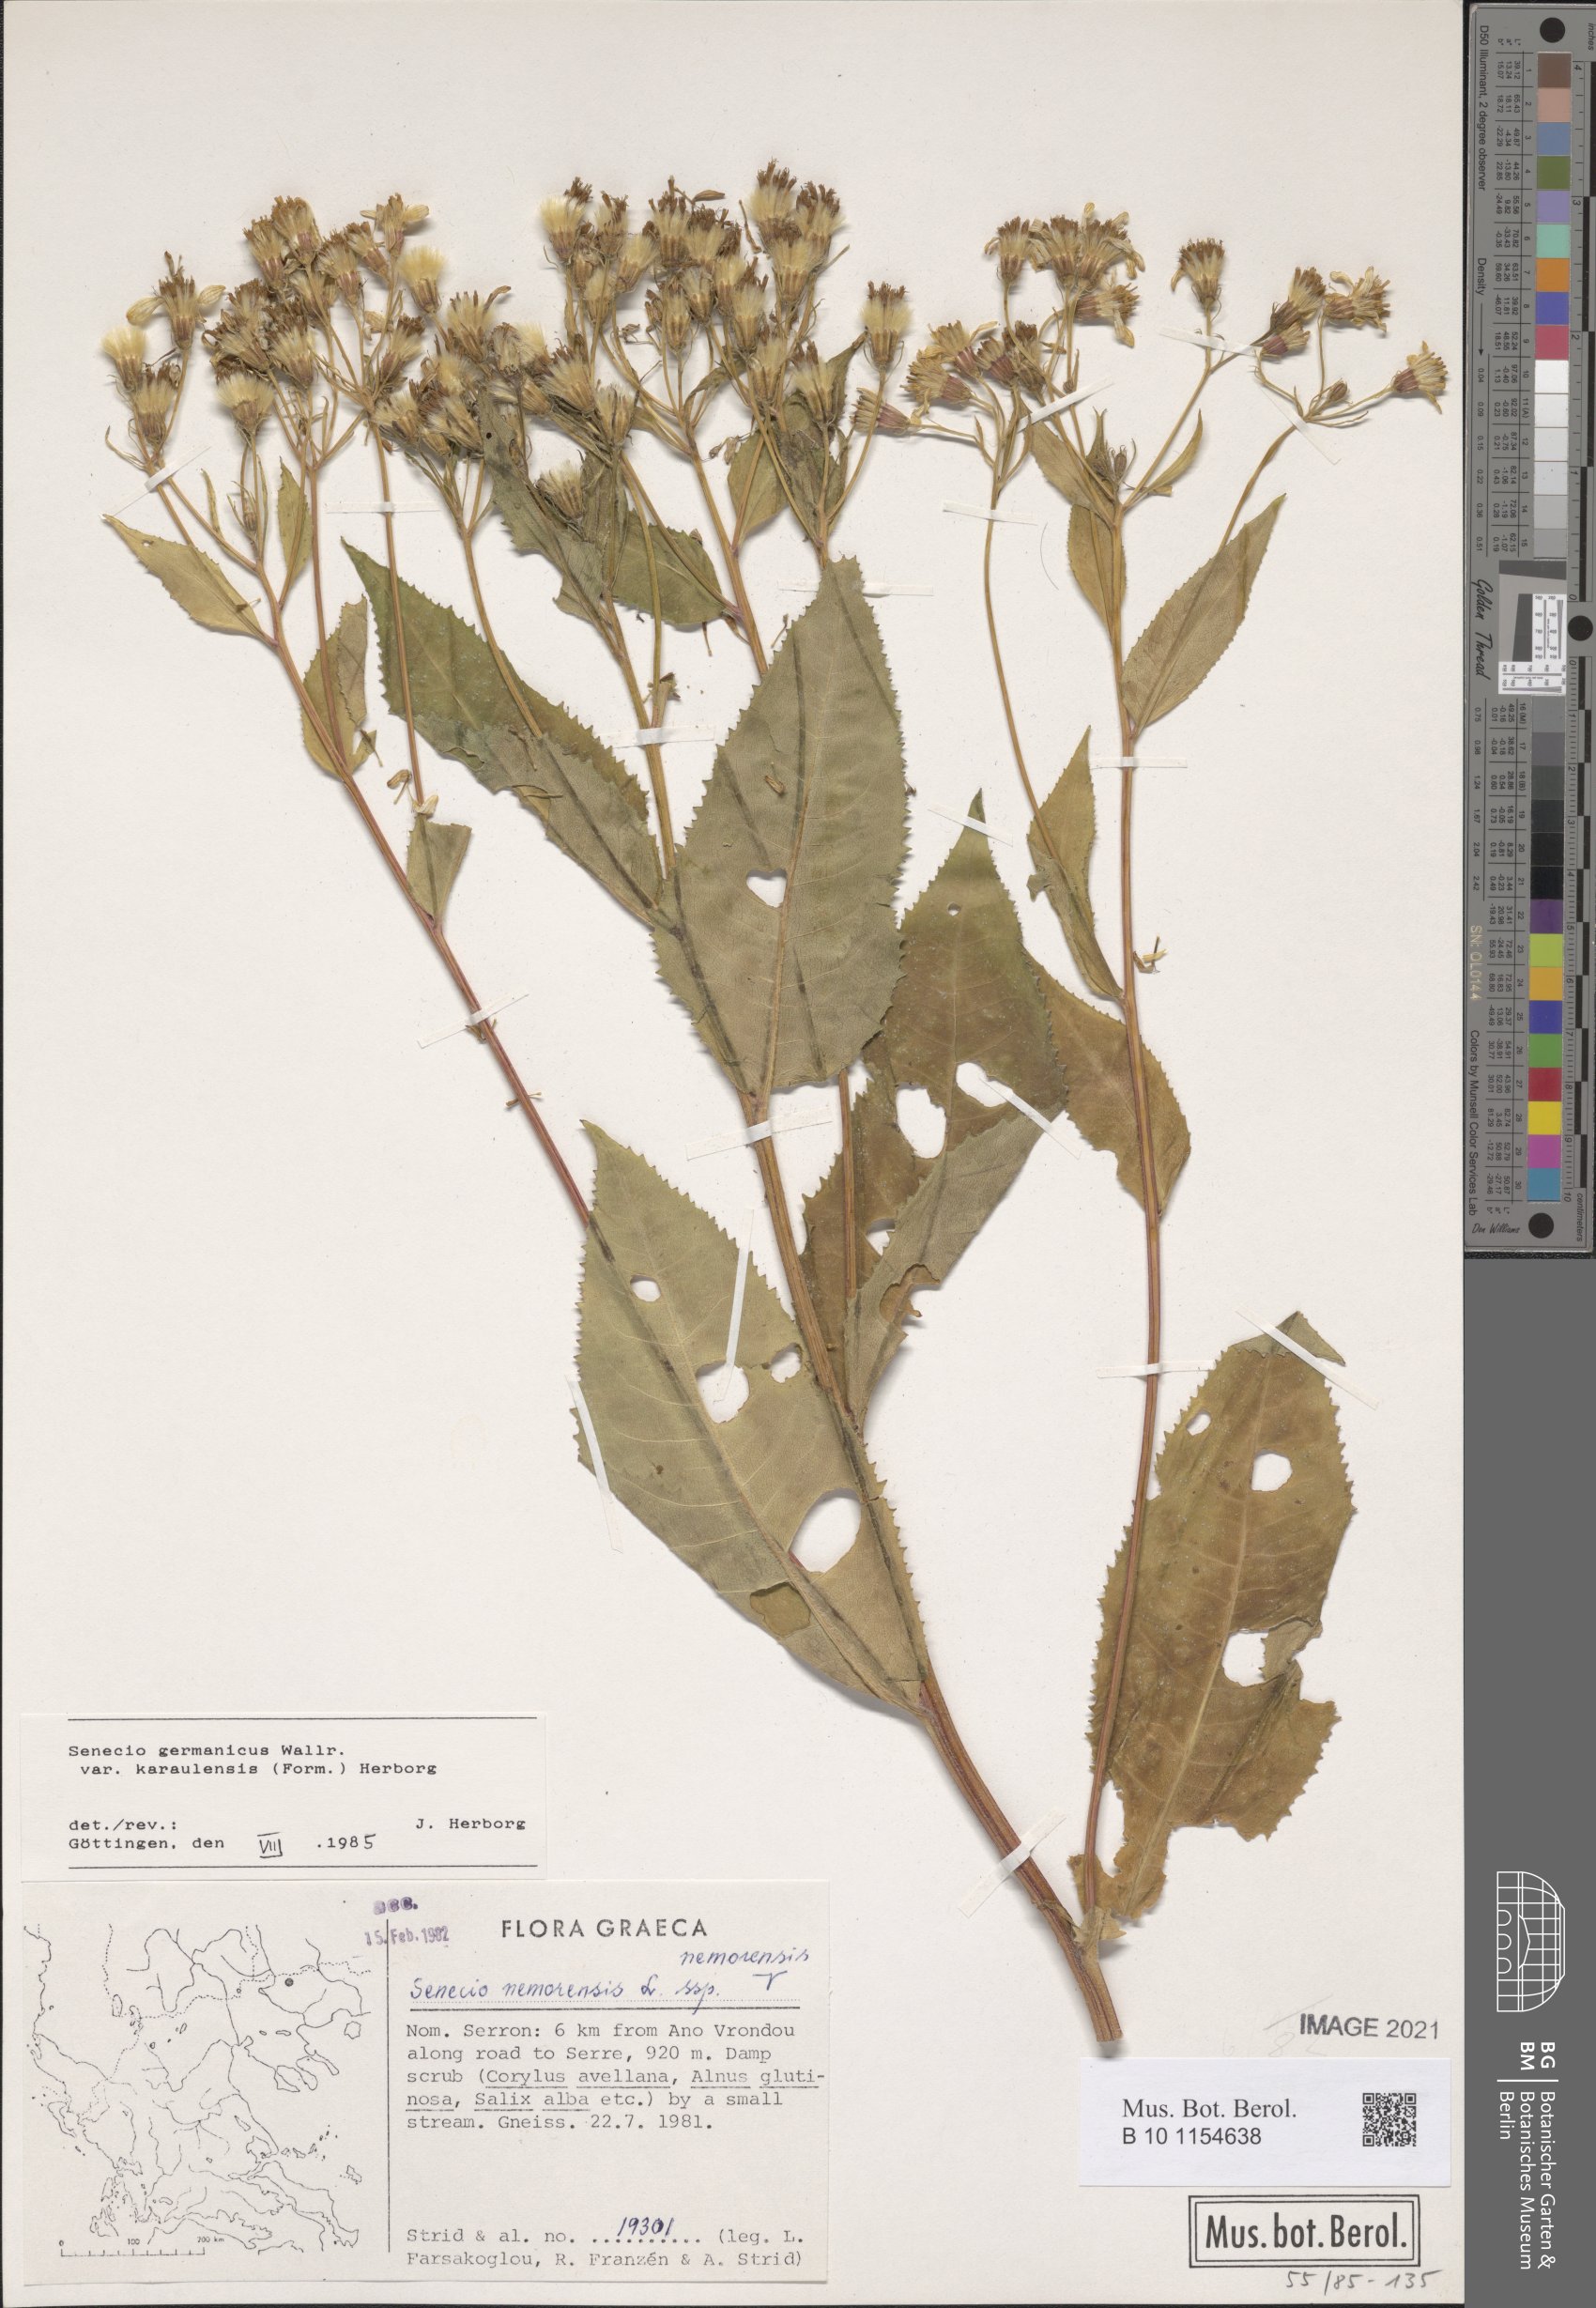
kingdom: Plantae
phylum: Tracheophyta
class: Magnoliopsida
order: Asterales
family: Asteraceae
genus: Senecio
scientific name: Senecio germanicus
